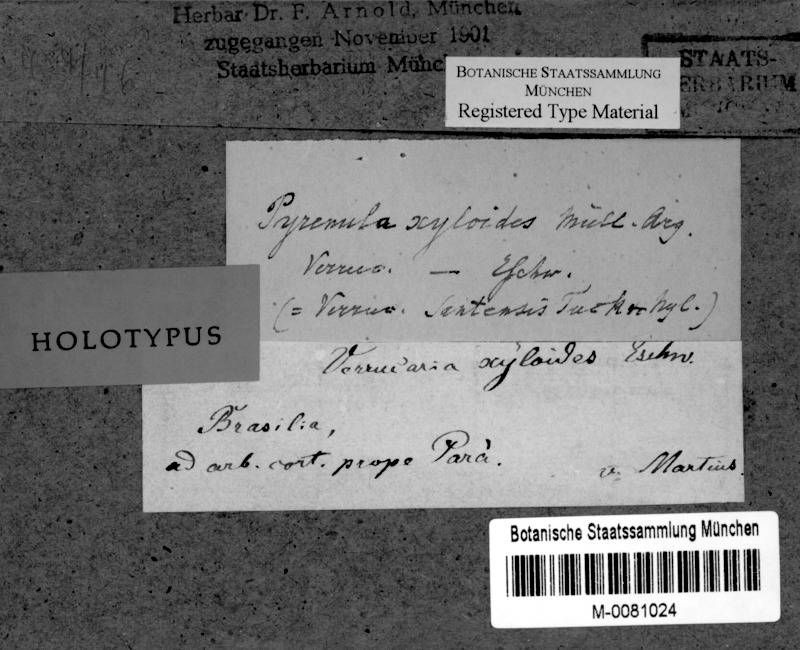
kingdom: Fungi
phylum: Ascomycota
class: Eurotiomycetes
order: Pyrenulales
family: Pyrenulaceae
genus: Pyrenula
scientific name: Pyrenula mamillana
